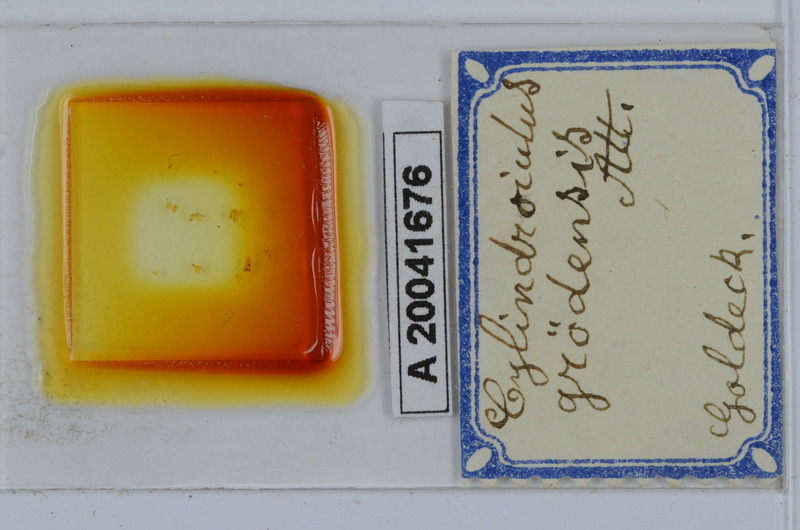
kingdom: Animalia
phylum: Arthropoda
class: Diplopoda
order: Julida
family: Julidae
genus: Allajulus
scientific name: Allajulus groedensis
